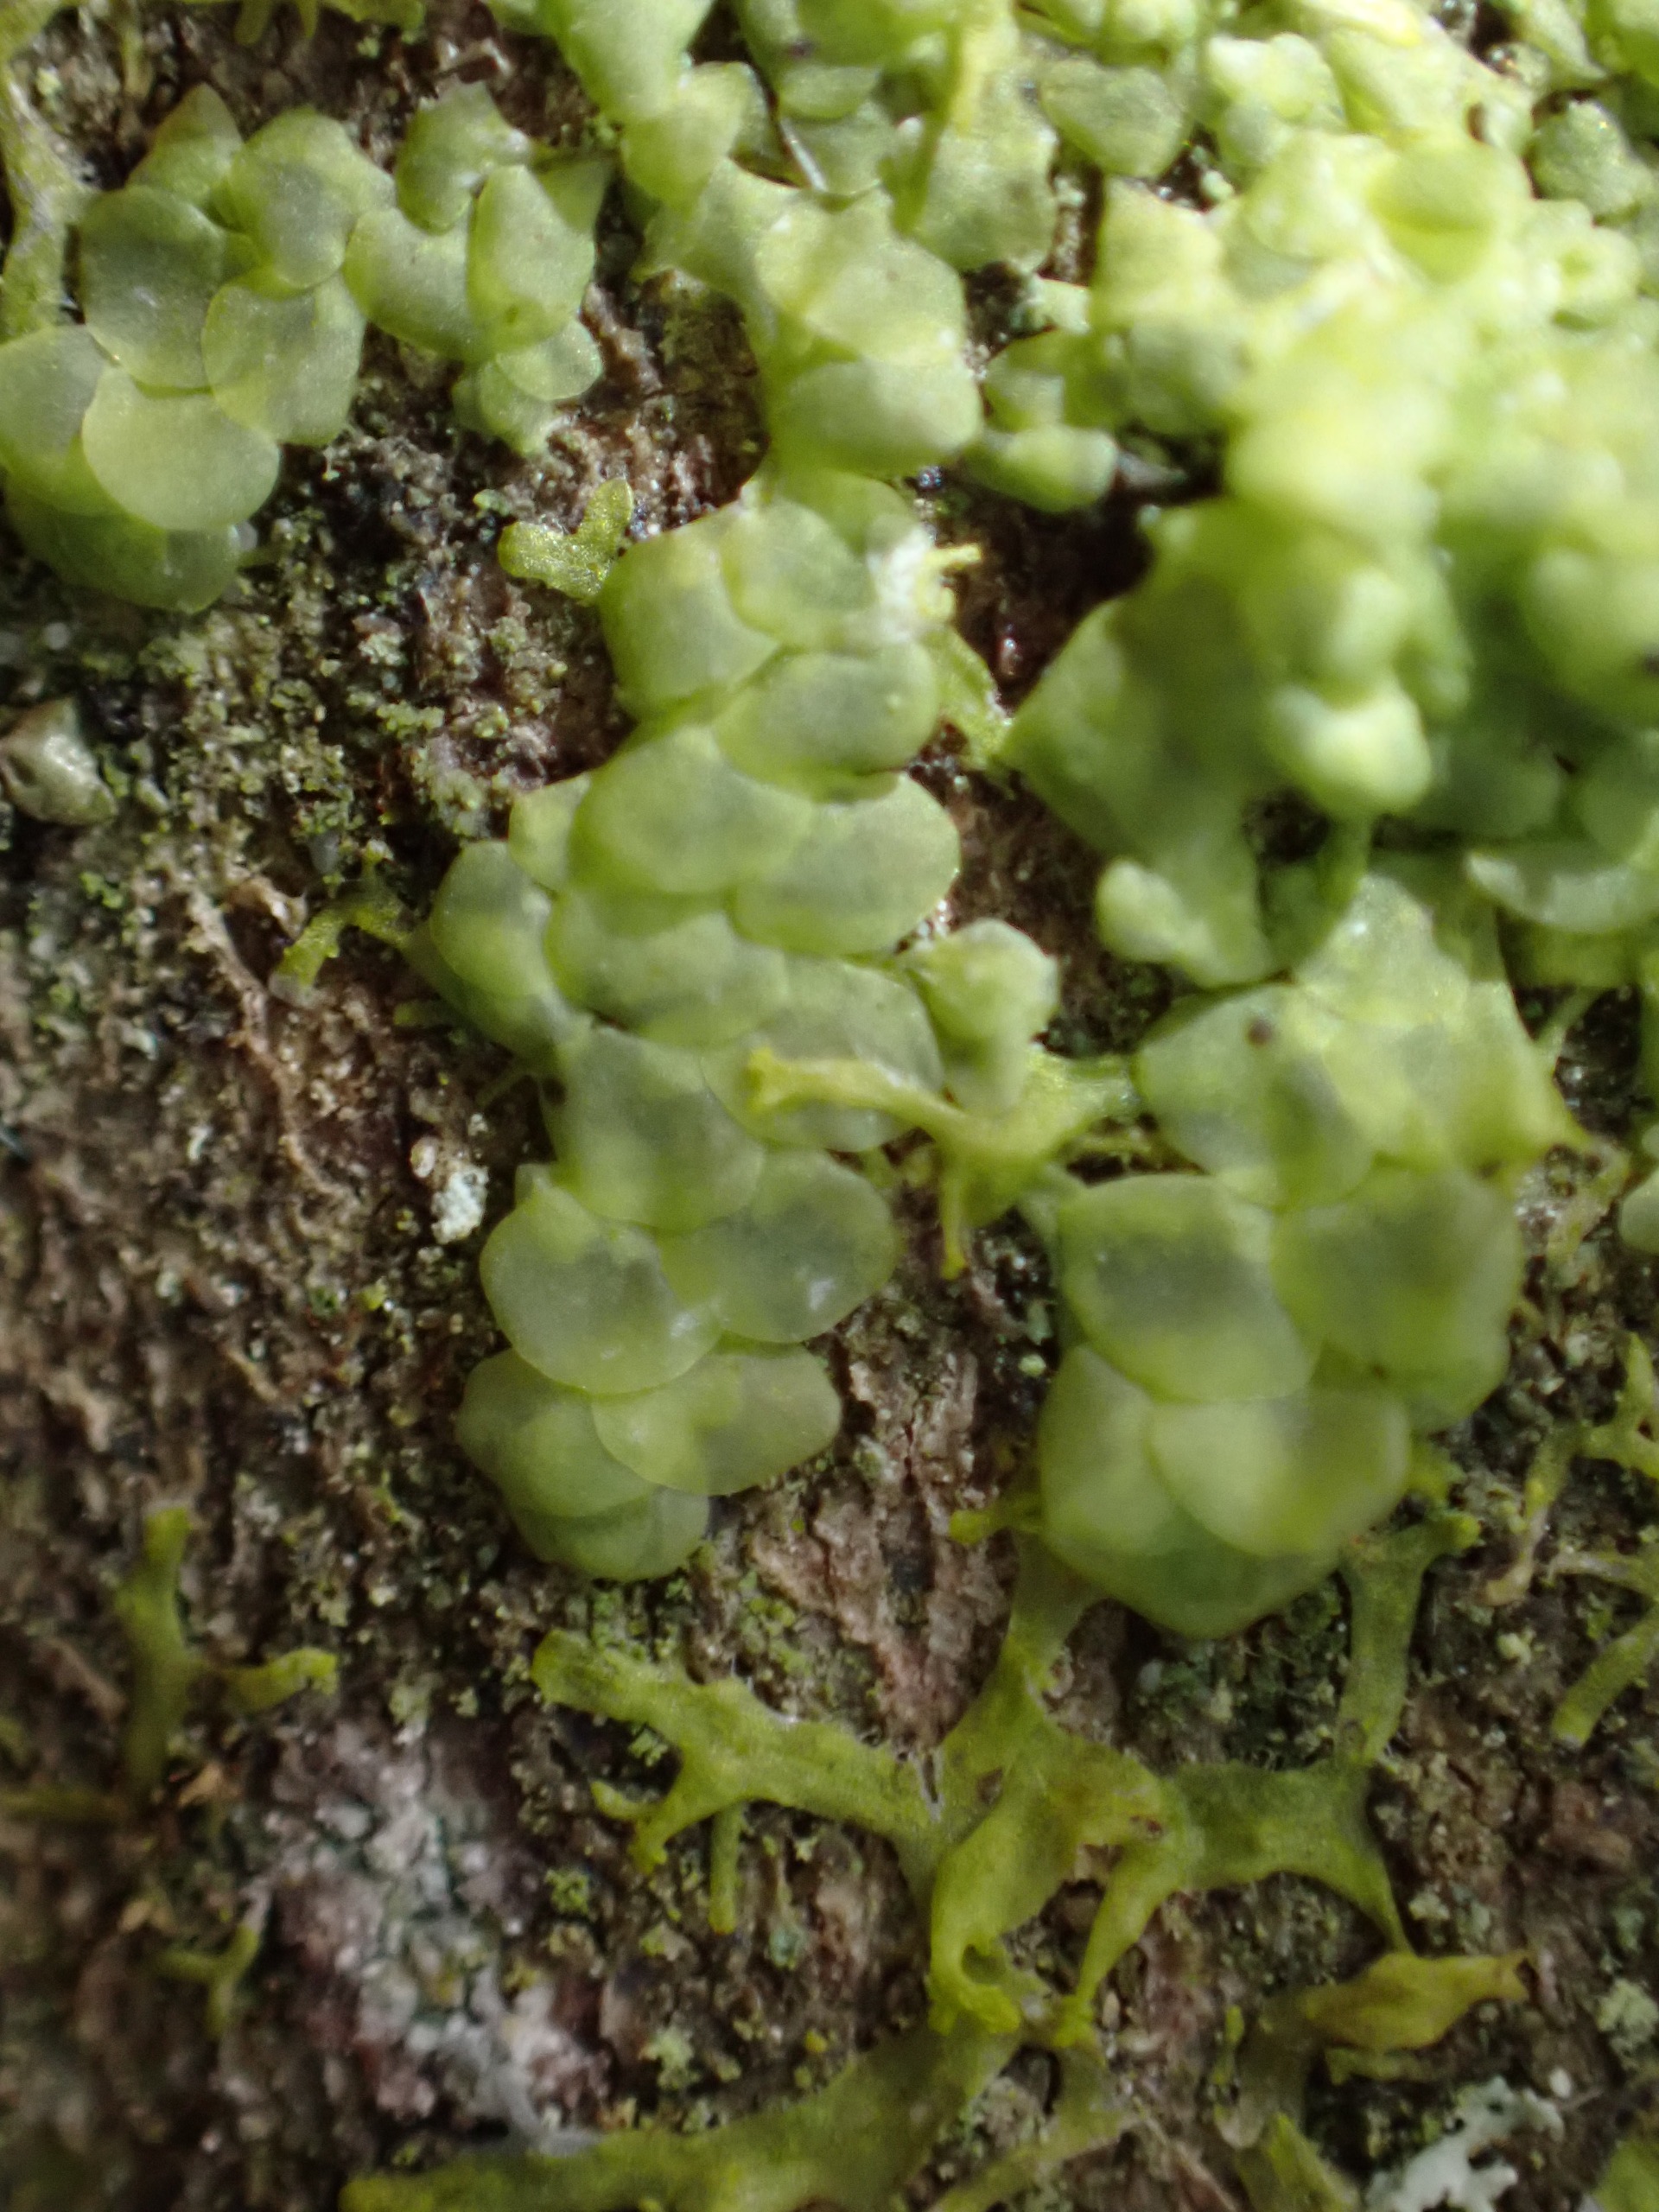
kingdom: Plantae
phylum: Marchantiophyta
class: Jungermanniopsida
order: Porellales
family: Radulaceae
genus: Radula
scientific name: Radula complanata
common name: Almindelig spartelmos
